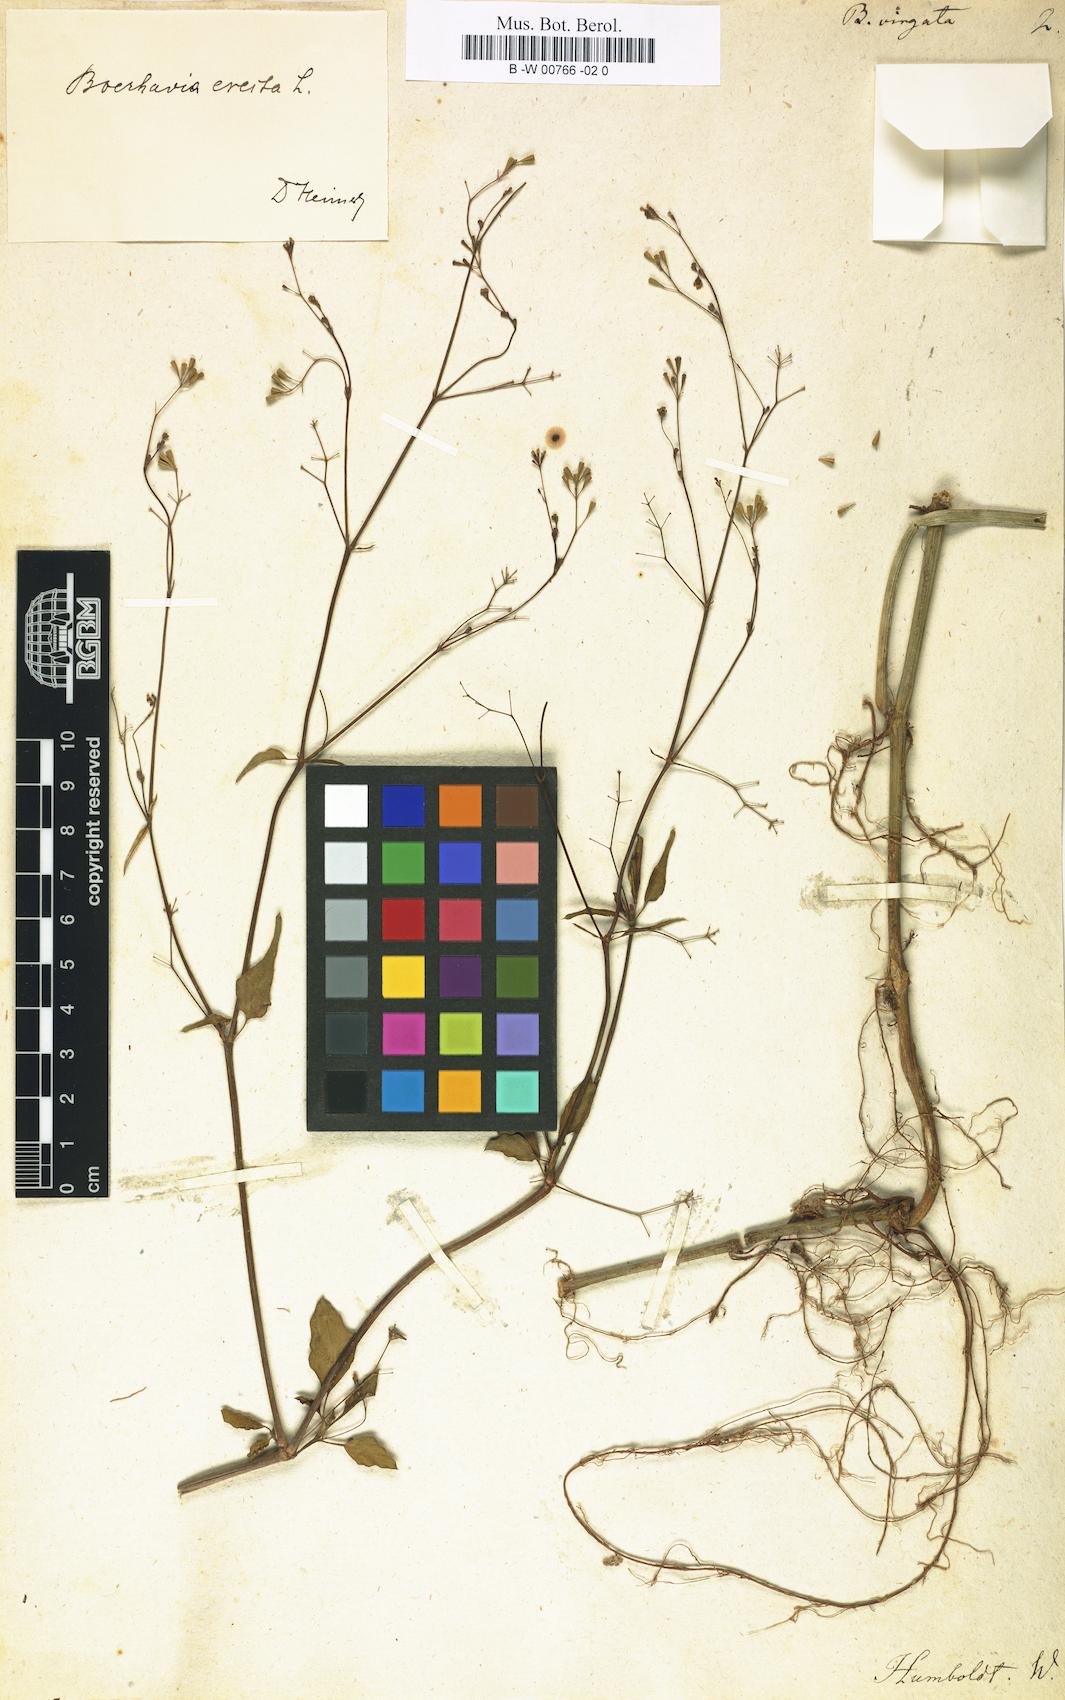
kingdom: Plantae
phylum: Tracheophyta
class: Magnoliopsida
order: Caryophyllales
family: Nyctaginaceae
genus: Boerhavia
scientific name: Boerhavia erecta
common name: Erect spiderling
